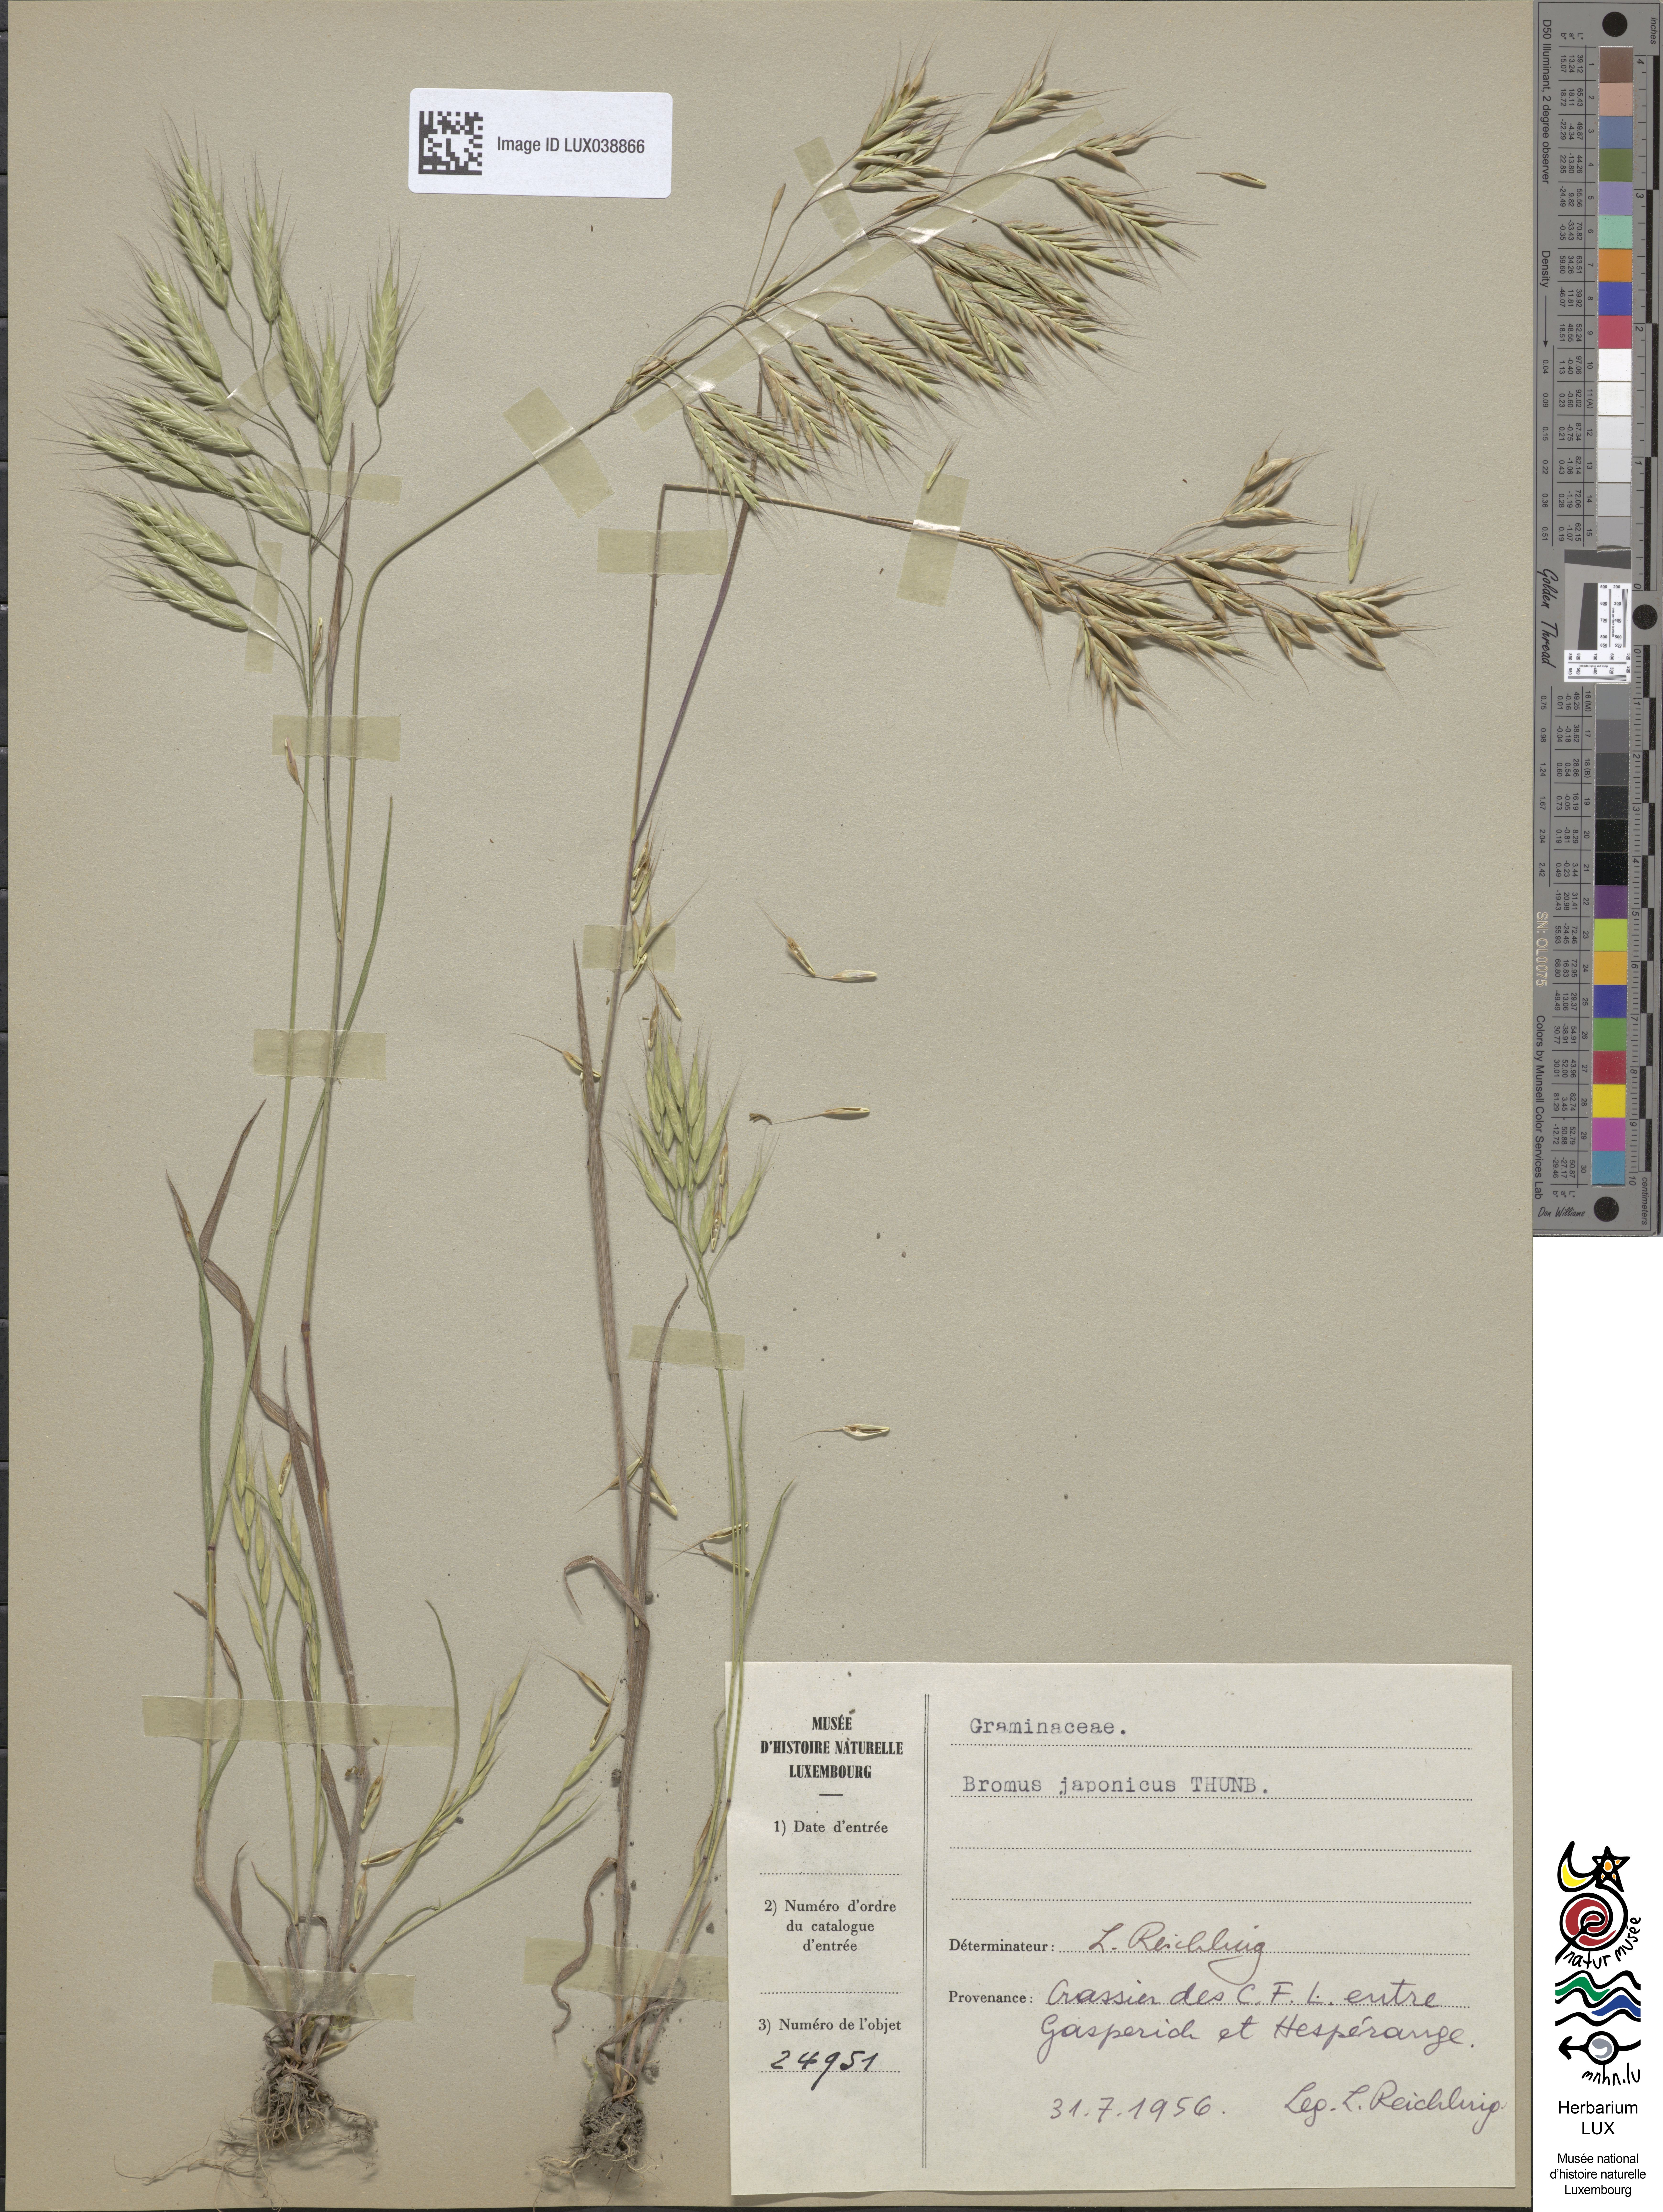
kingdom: Plantae
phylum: Tracheophyta
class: Liliopsida
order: Poales
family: Poaceae
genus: Bromus
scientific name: Bromus japonicus
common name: Japanese brome
